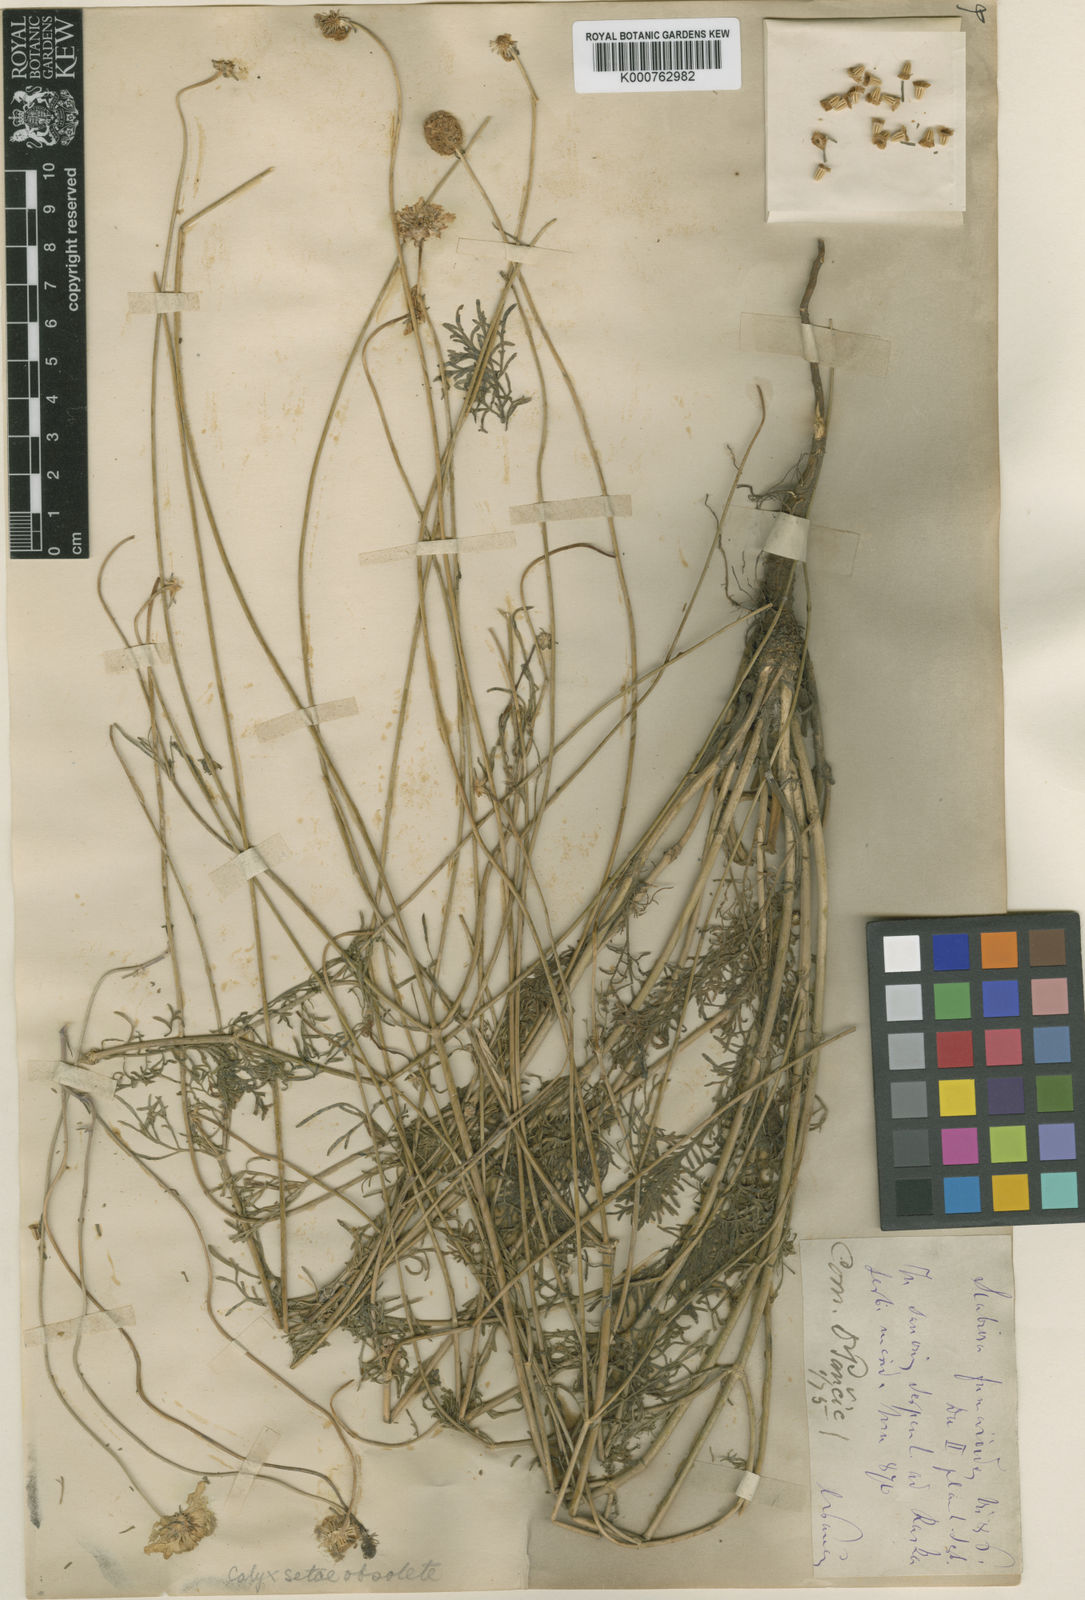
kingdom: Plantae
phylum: Tracheophyta
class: Magnoliopsida
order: Dipsacales
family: Caprifoliaceae
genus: Scabiosa
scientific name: Scabiosa fumarioides
